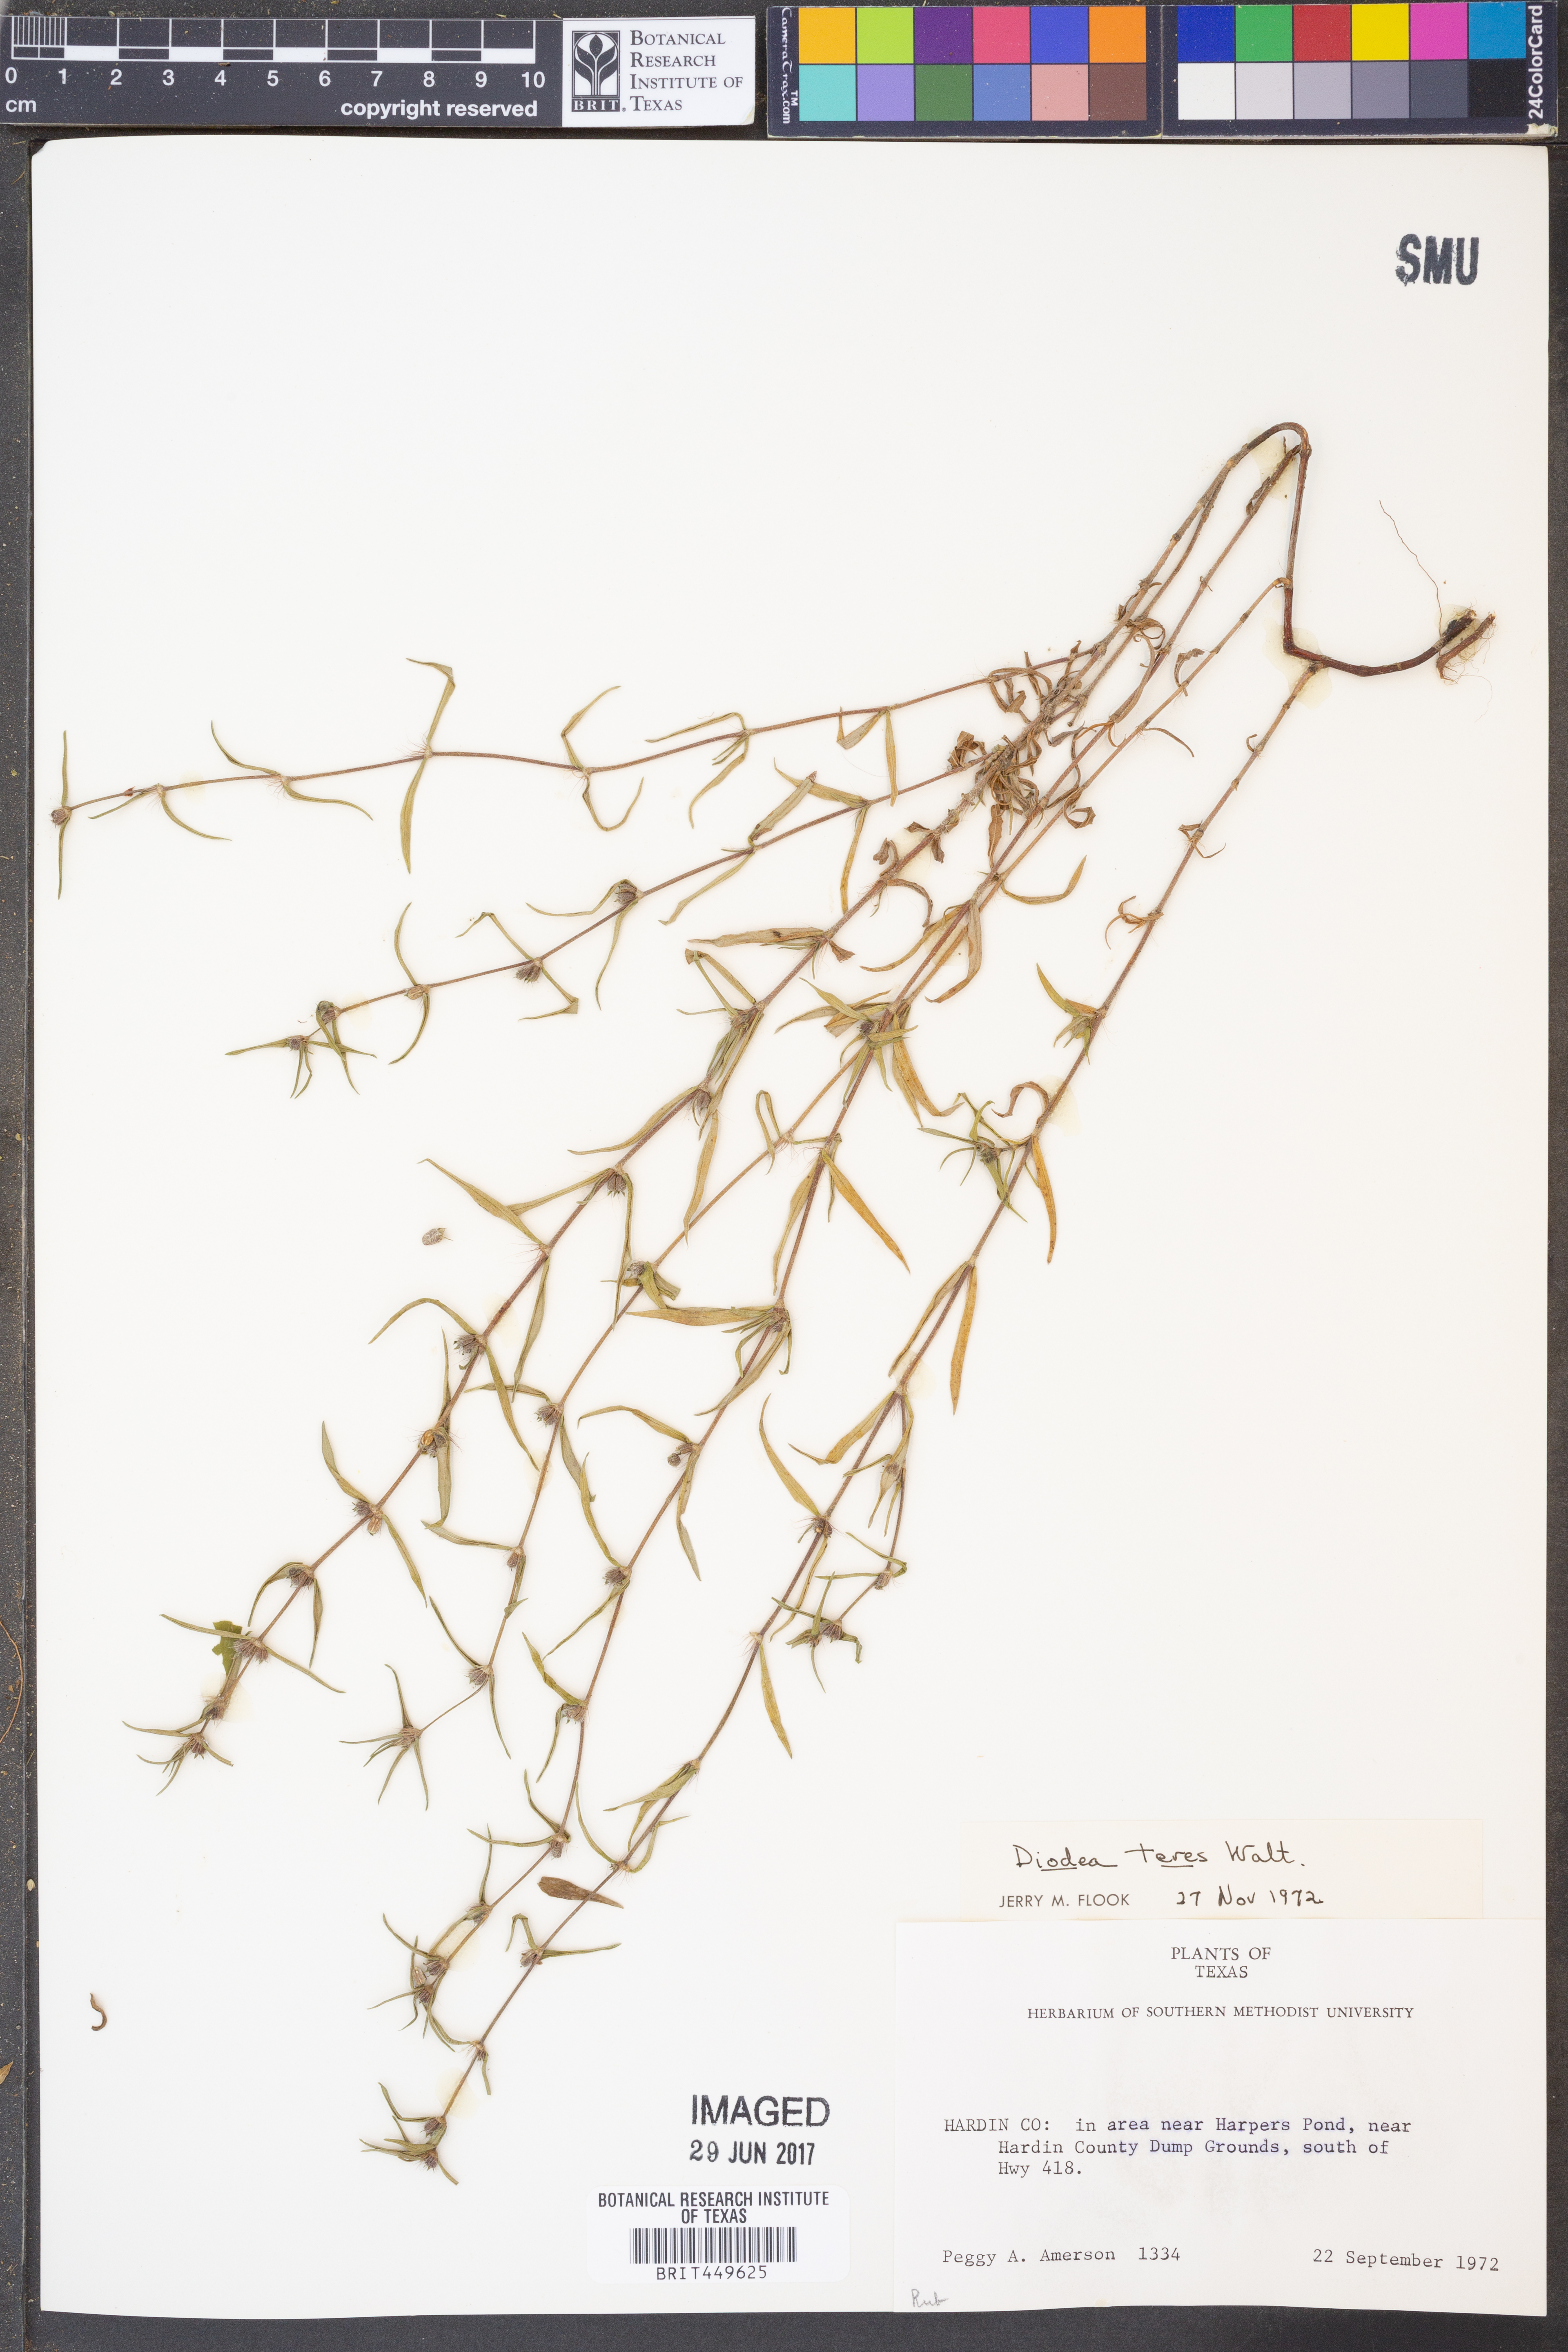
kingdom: Plantae
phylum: Tracheophyta
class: Magnoliopsida
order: Gentianales
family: Rubiaceae
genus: Hexasepalum
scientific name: Hexasepalum teres
